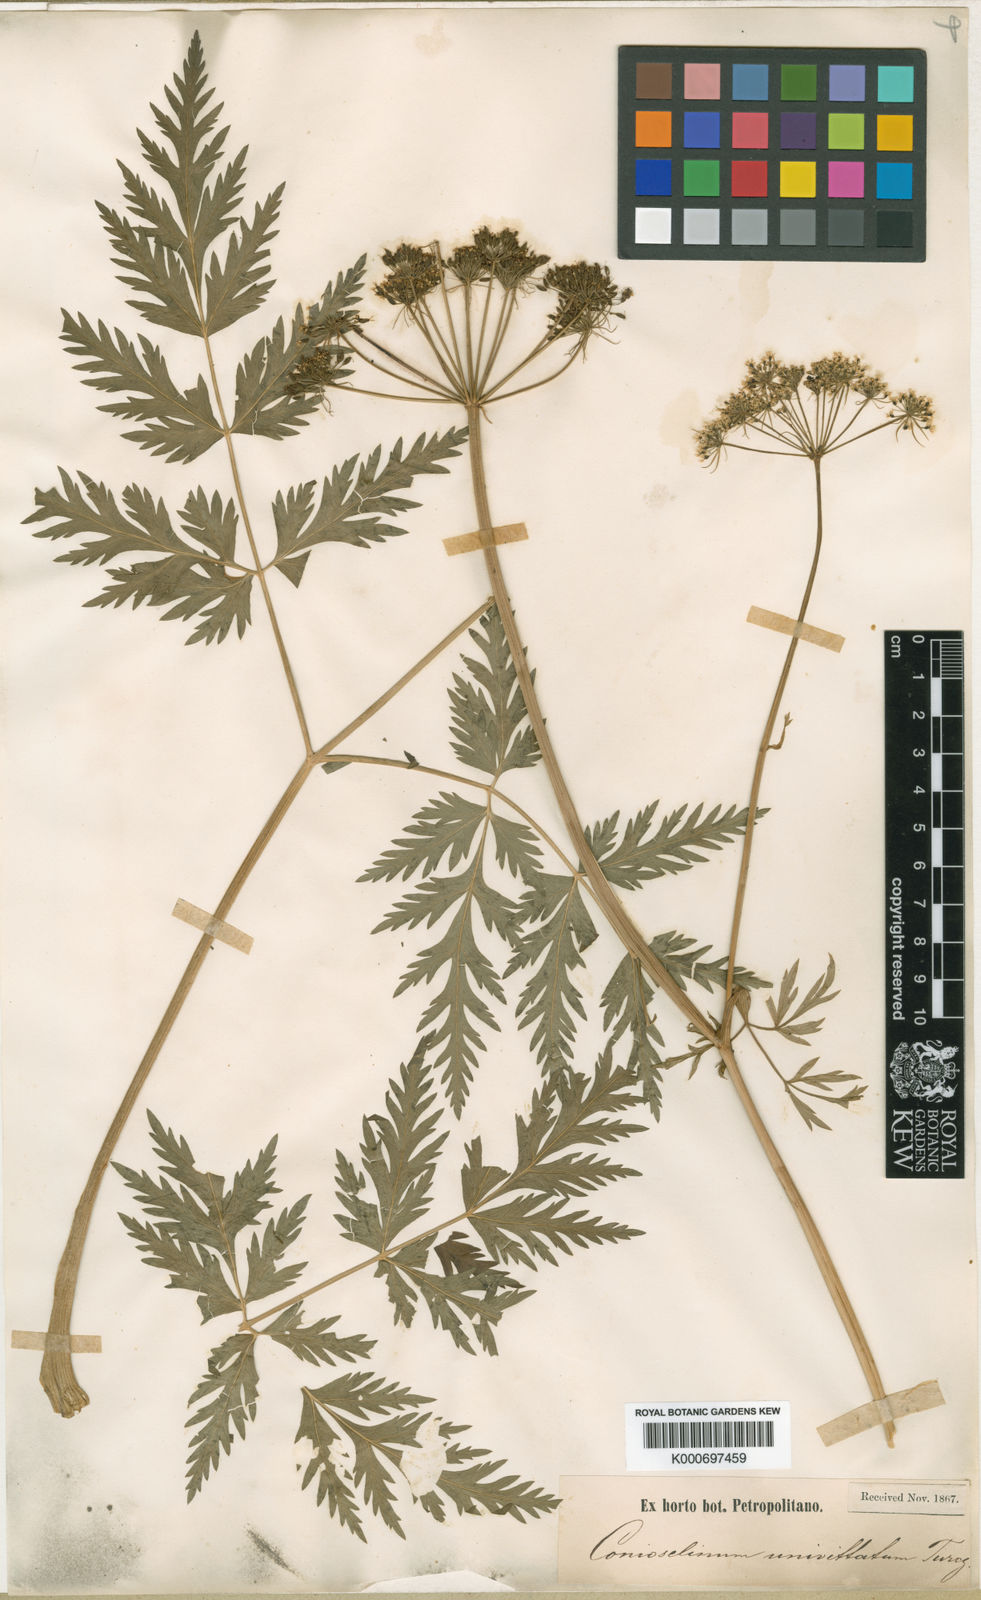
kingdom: Plantae
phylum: Tracheophyta
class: Magnoliopsida
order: Apiales
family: Apiaceae
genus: Seseli
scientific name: Seseli
